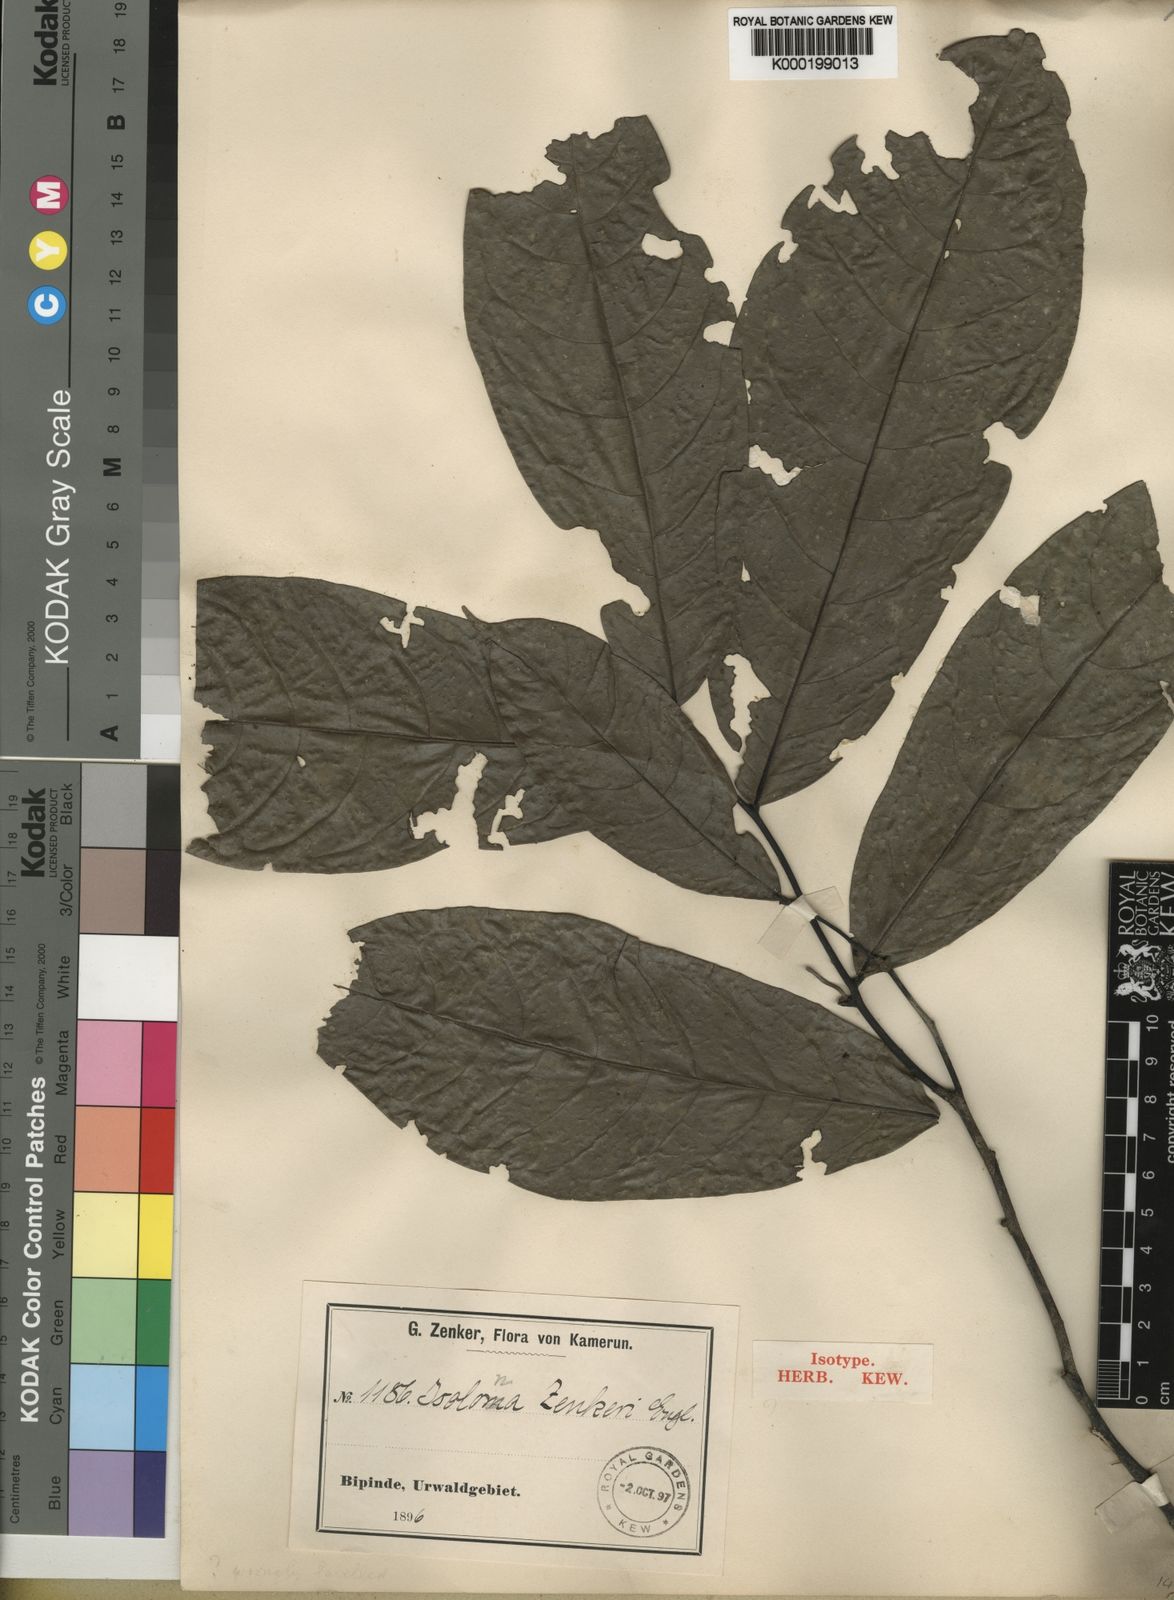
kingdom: Plantae
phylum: Tracheophyta
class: Magnoliopsida
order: Magnoliales
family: Annonaceae
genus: Isolona
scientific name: Isolona zenkeri
